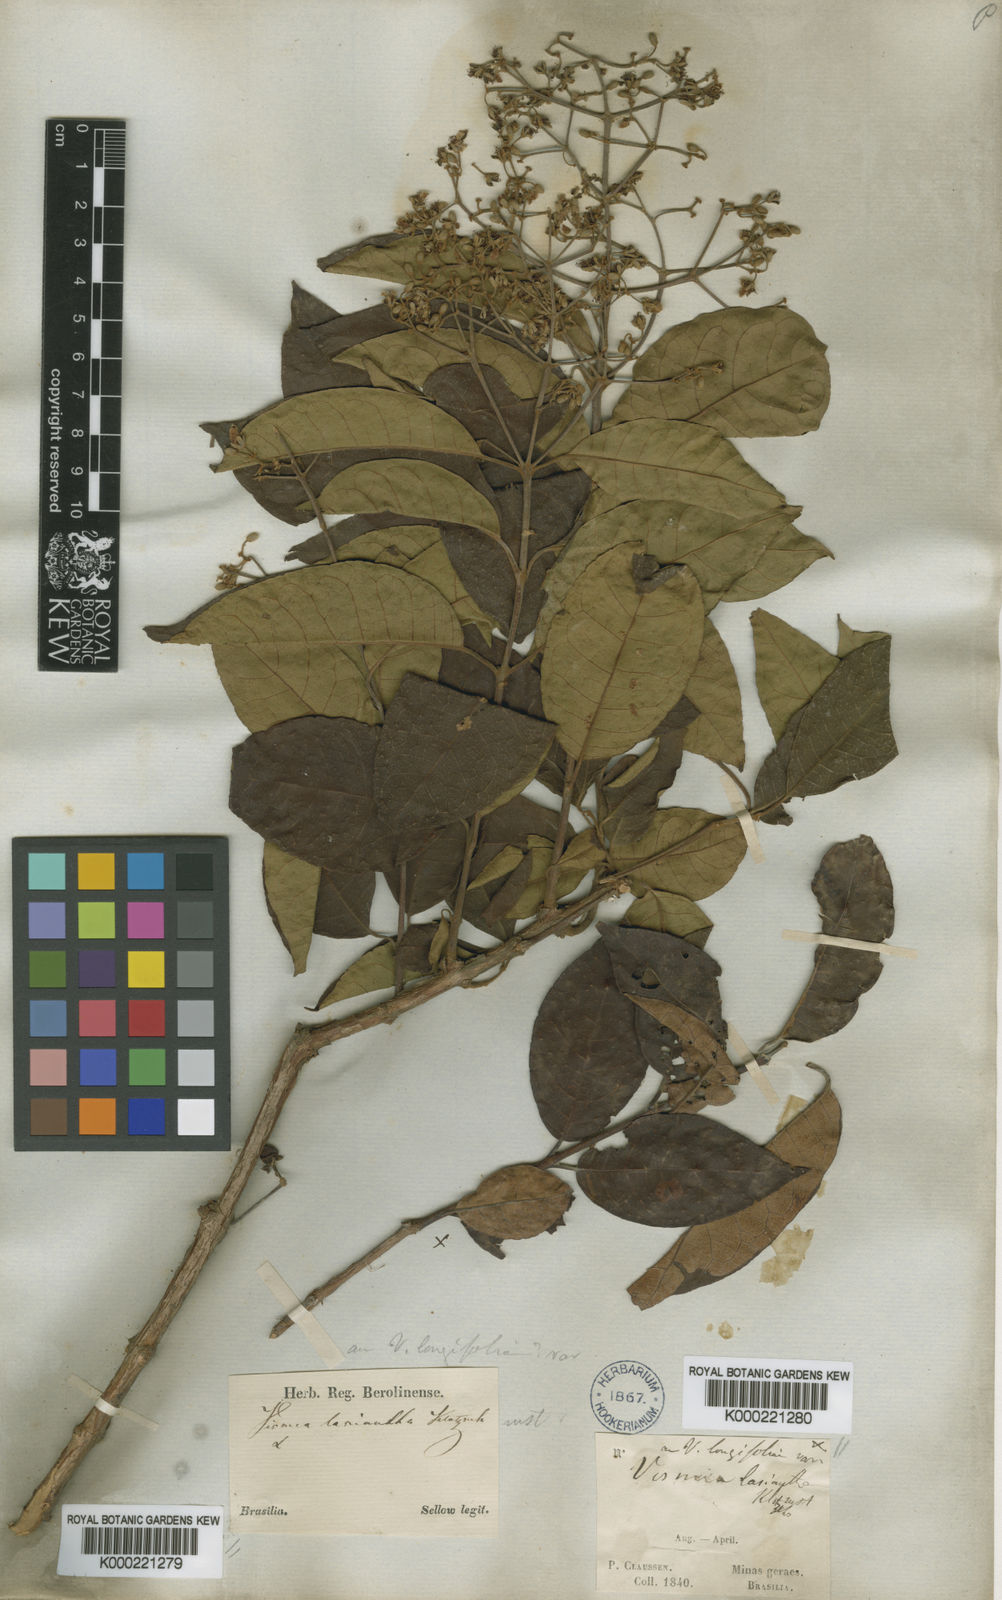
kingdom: Plantae
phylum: Tracheophyta
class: Magnoliopsida
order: Malpighiales
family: Hypericaceae
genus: Vismia
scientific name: Vismia brasiliensis
